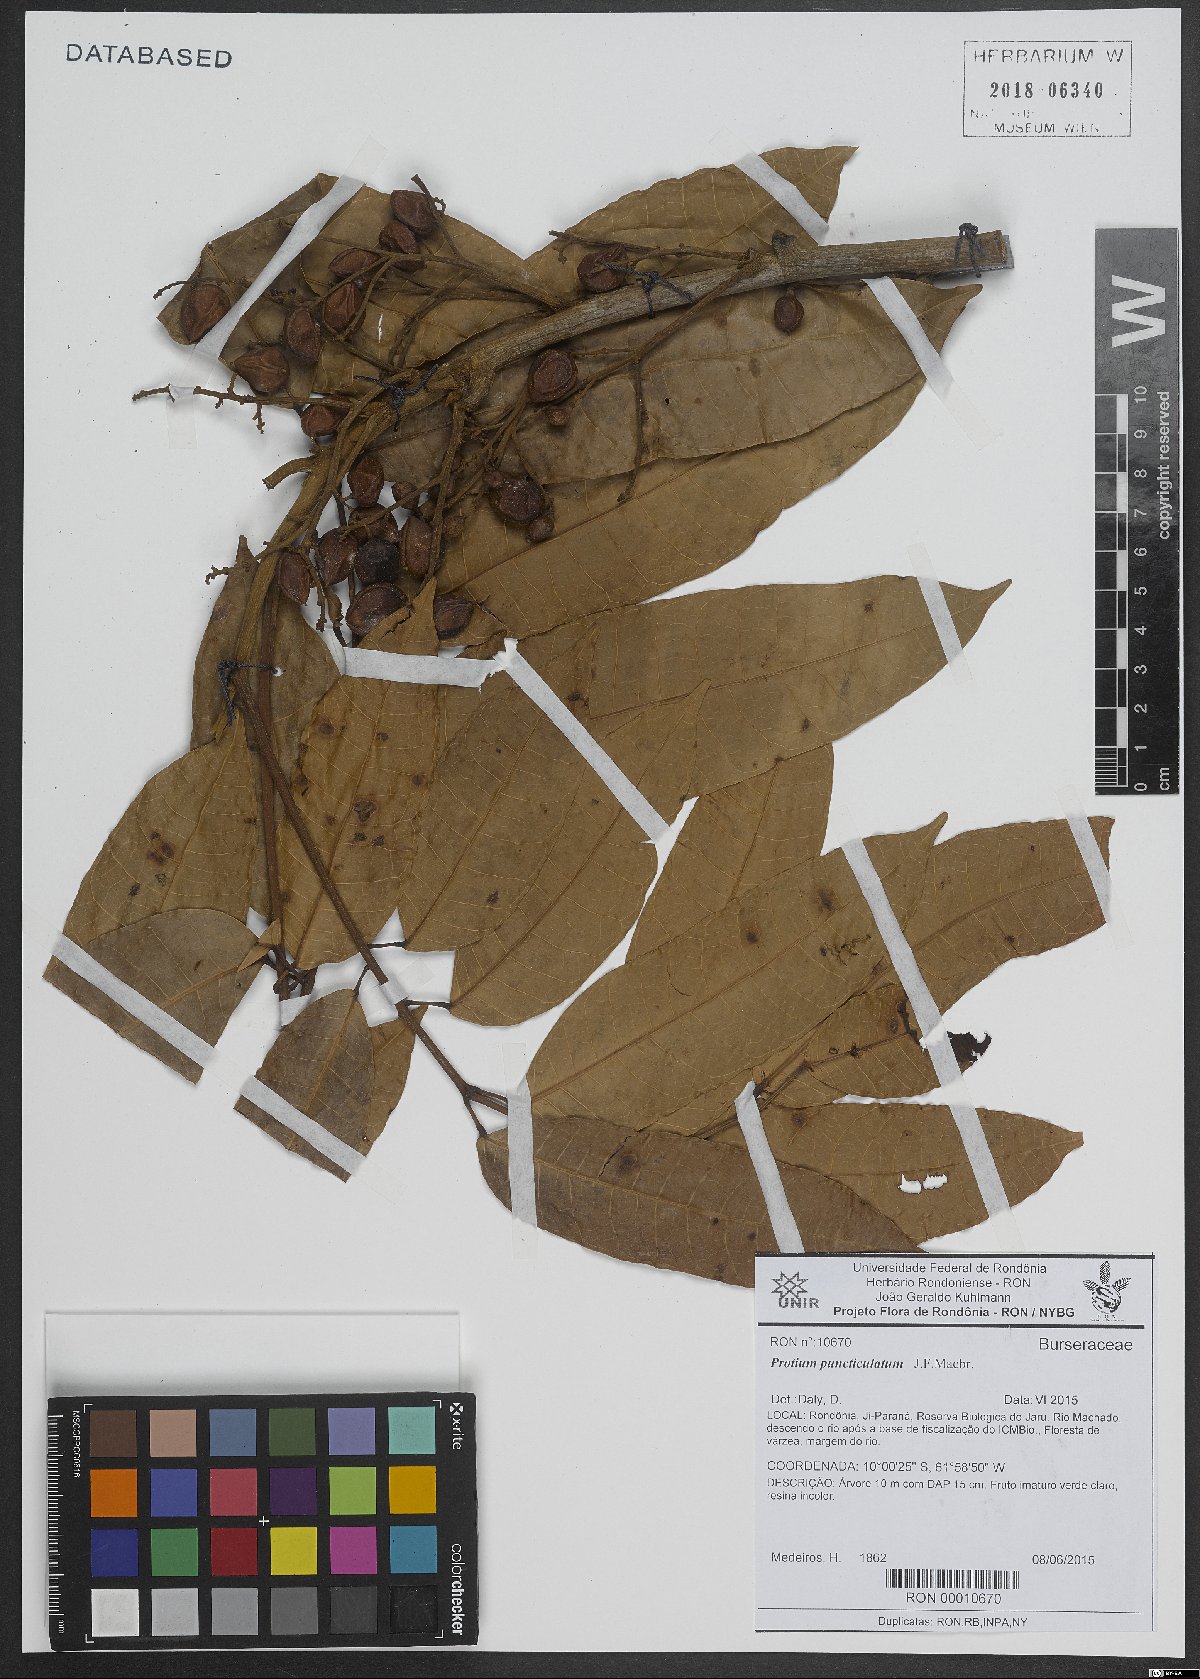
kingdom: Plantae
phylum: Tracheophyta
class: Magnoliopsida
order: Sapindales
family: Burseraceae
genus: Protium
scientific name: Protium puncticulatum
